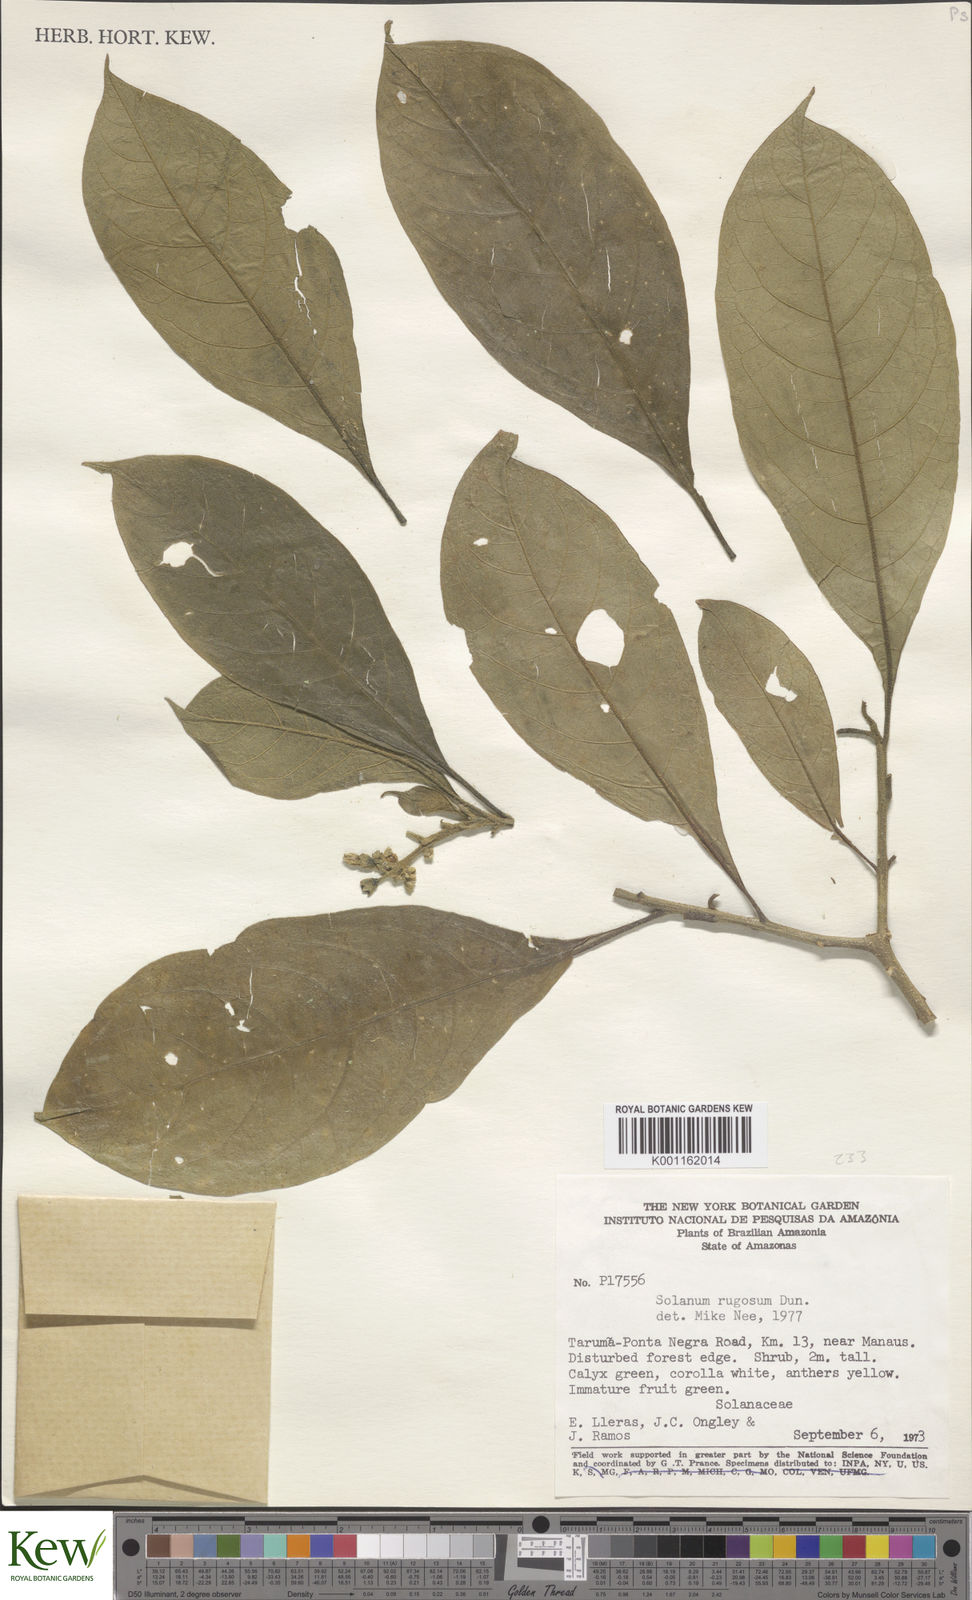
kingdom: Plantae
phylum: Tracheophyta
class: Magnoliopsida
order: Solanales
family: Solanaceae
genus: Solanum
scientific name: Solanum rugosum
